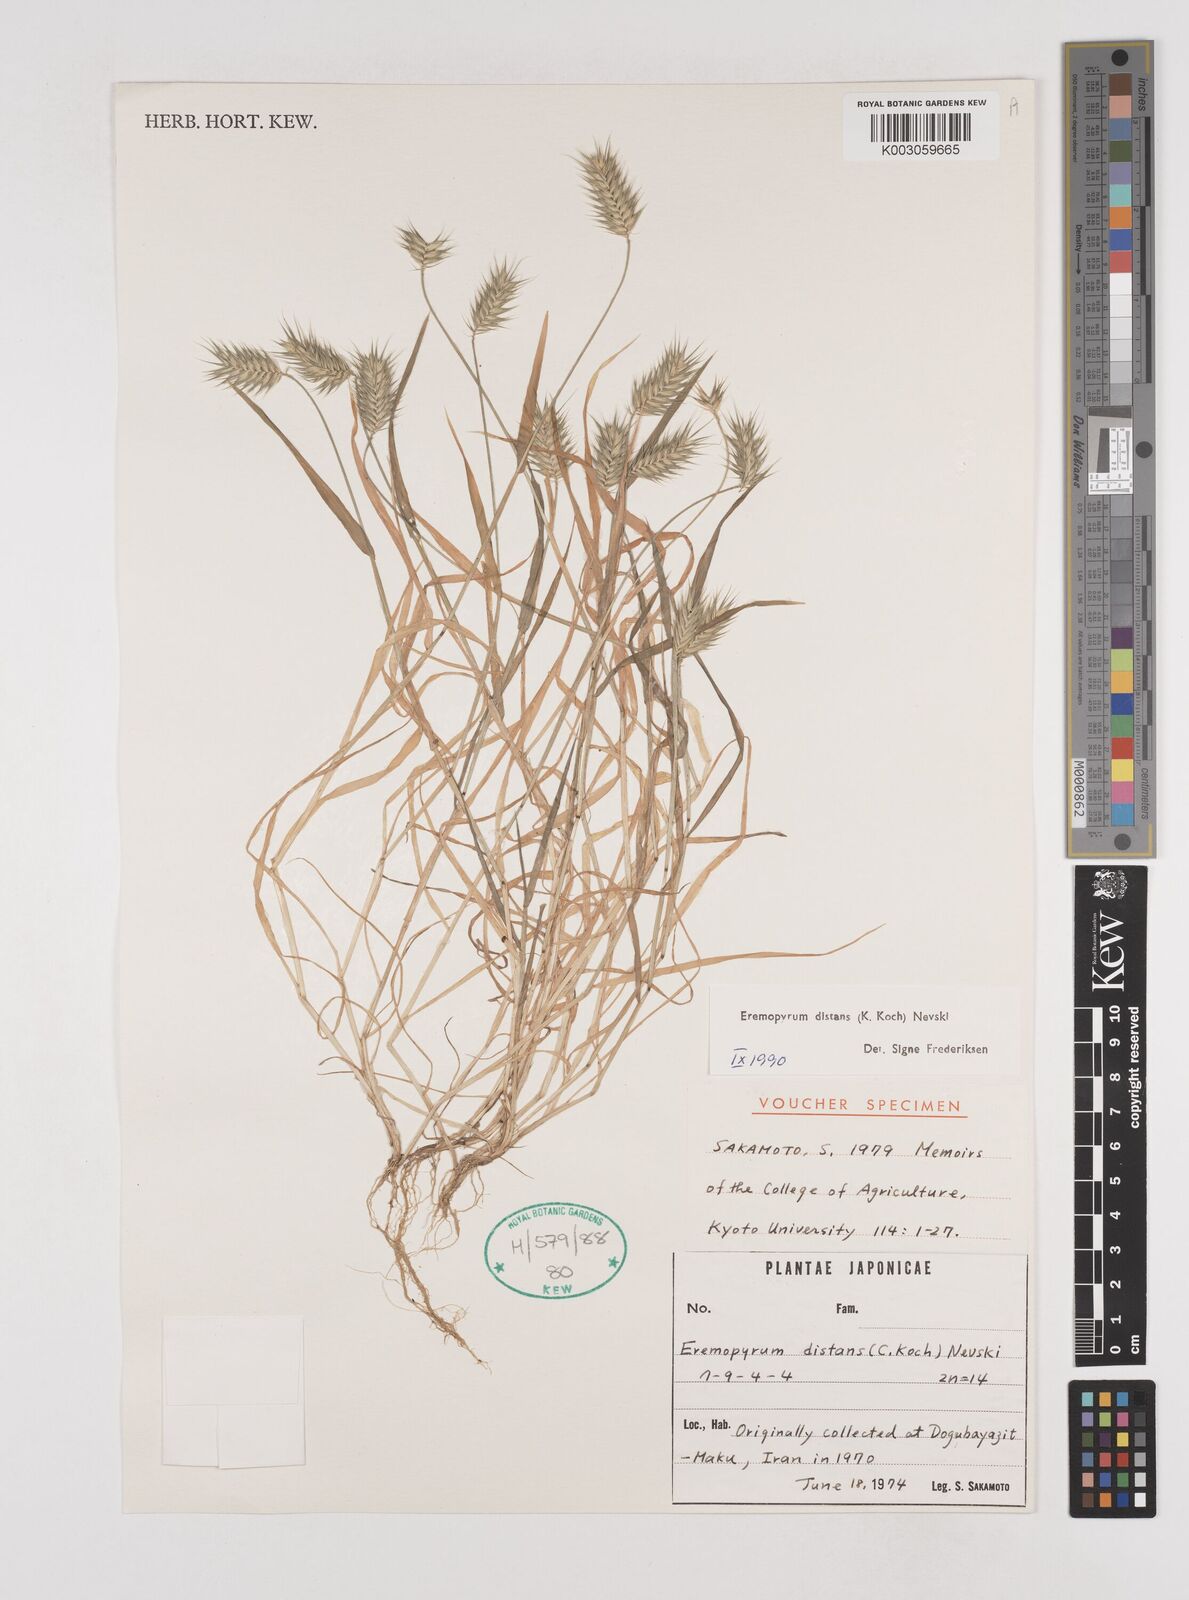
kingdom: Plantae
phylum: Tracheophyta
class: Liliopsida
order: Poales
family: Poaceae
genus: Eremopyrum
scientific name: Eremopyrum distans
